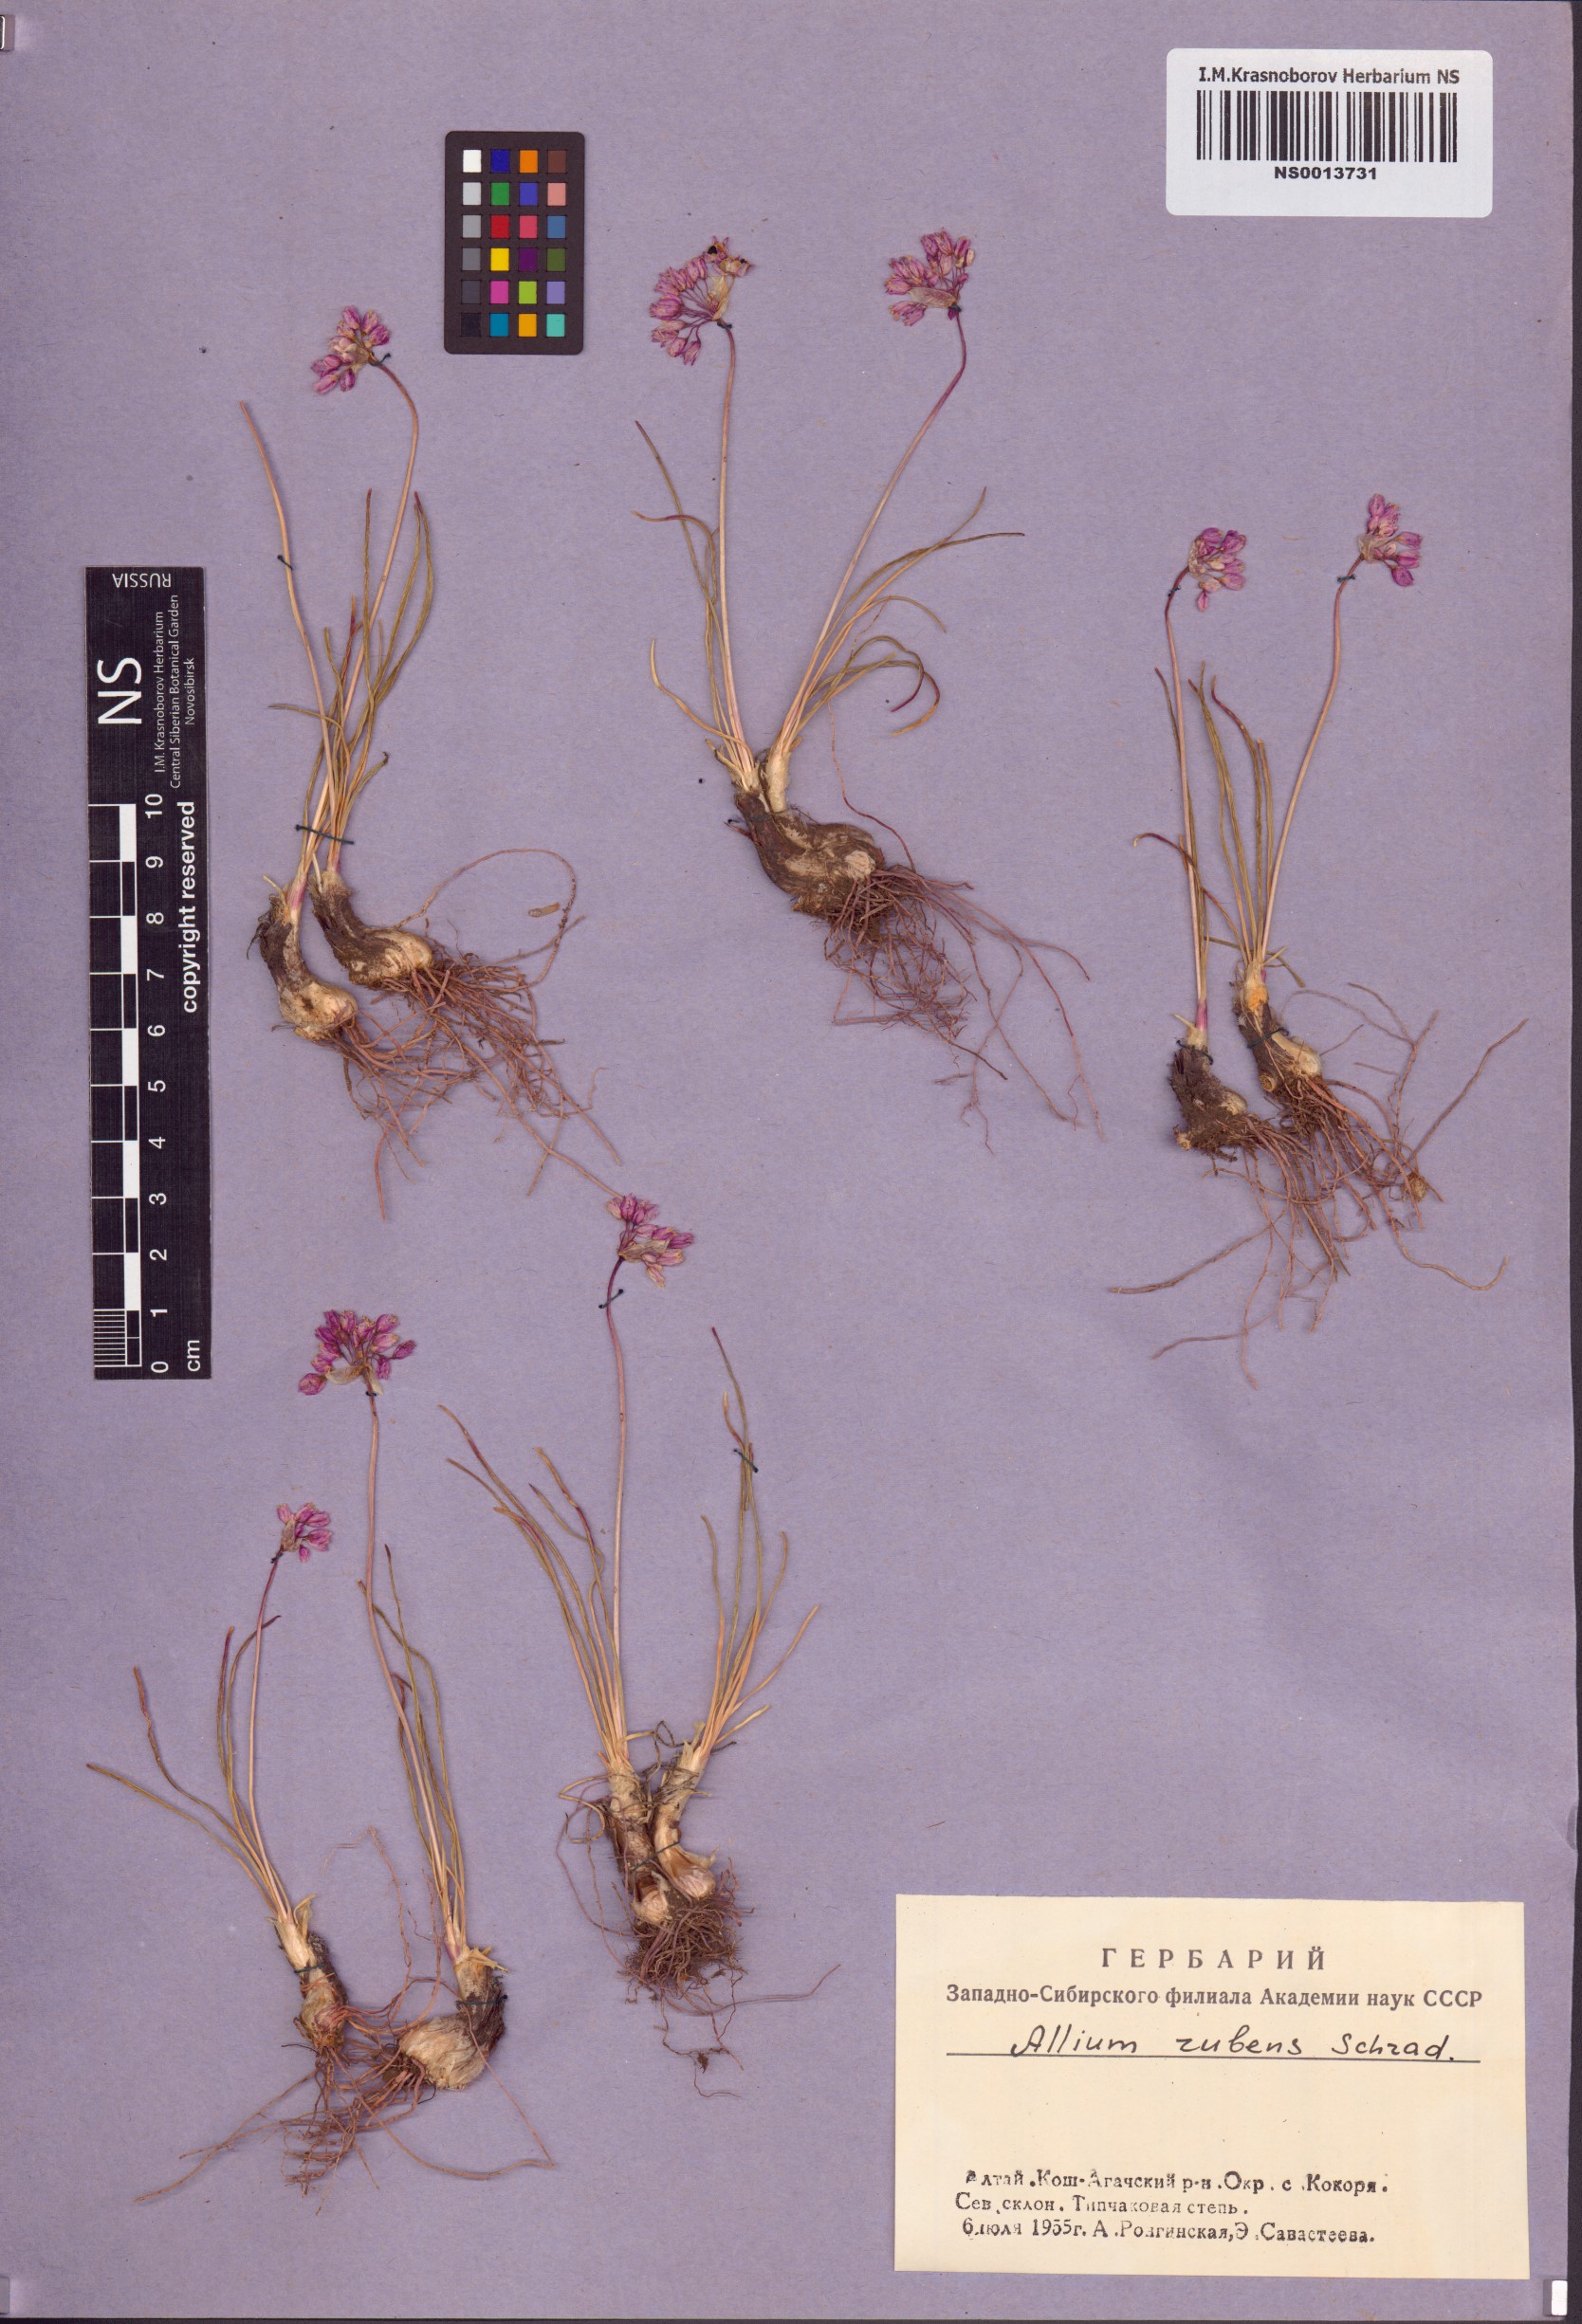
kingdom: Plantae
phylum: Tracheophyta
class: Liliopsida
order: Asparagales
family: Amaryllidaceae
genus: Allium
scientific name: Allium rubens
